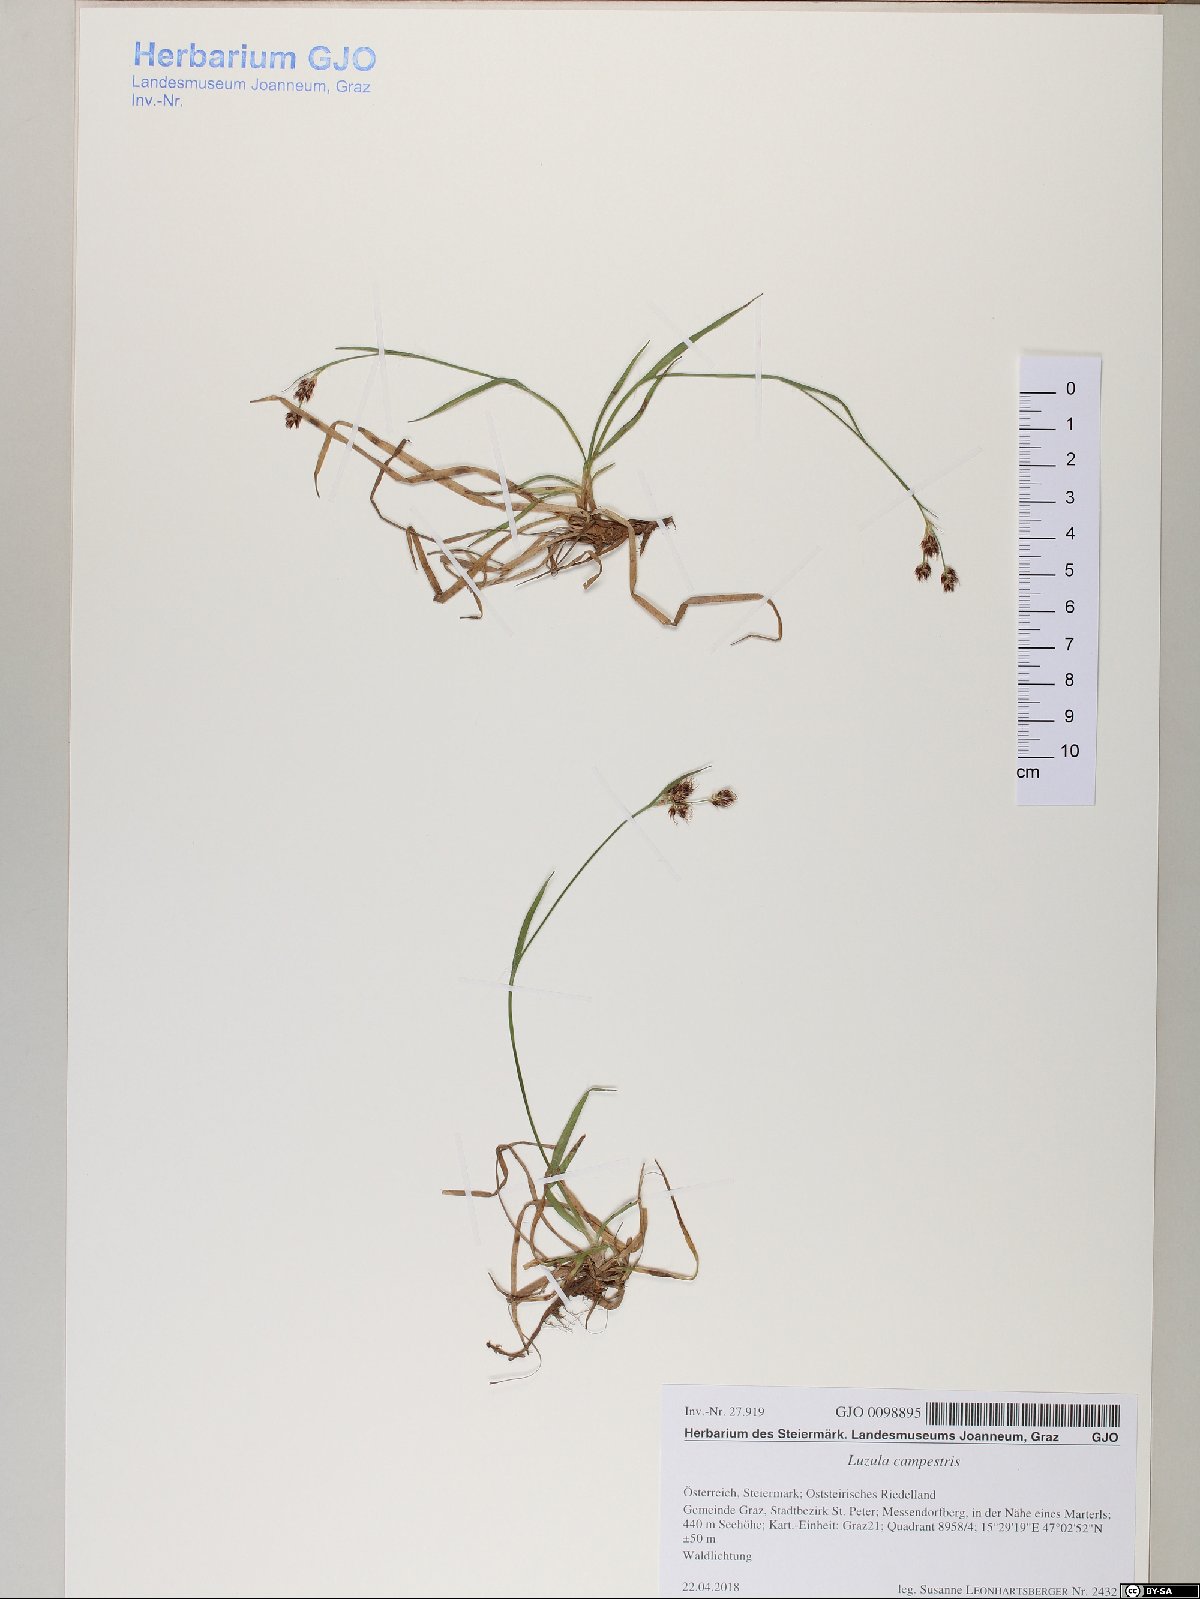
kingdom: Plantae
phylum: Tracheophyta
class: Liliopsida
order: Poales
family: Juncaceae
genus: Luzula
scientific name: Luzula campestris
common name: Field wood-rush
